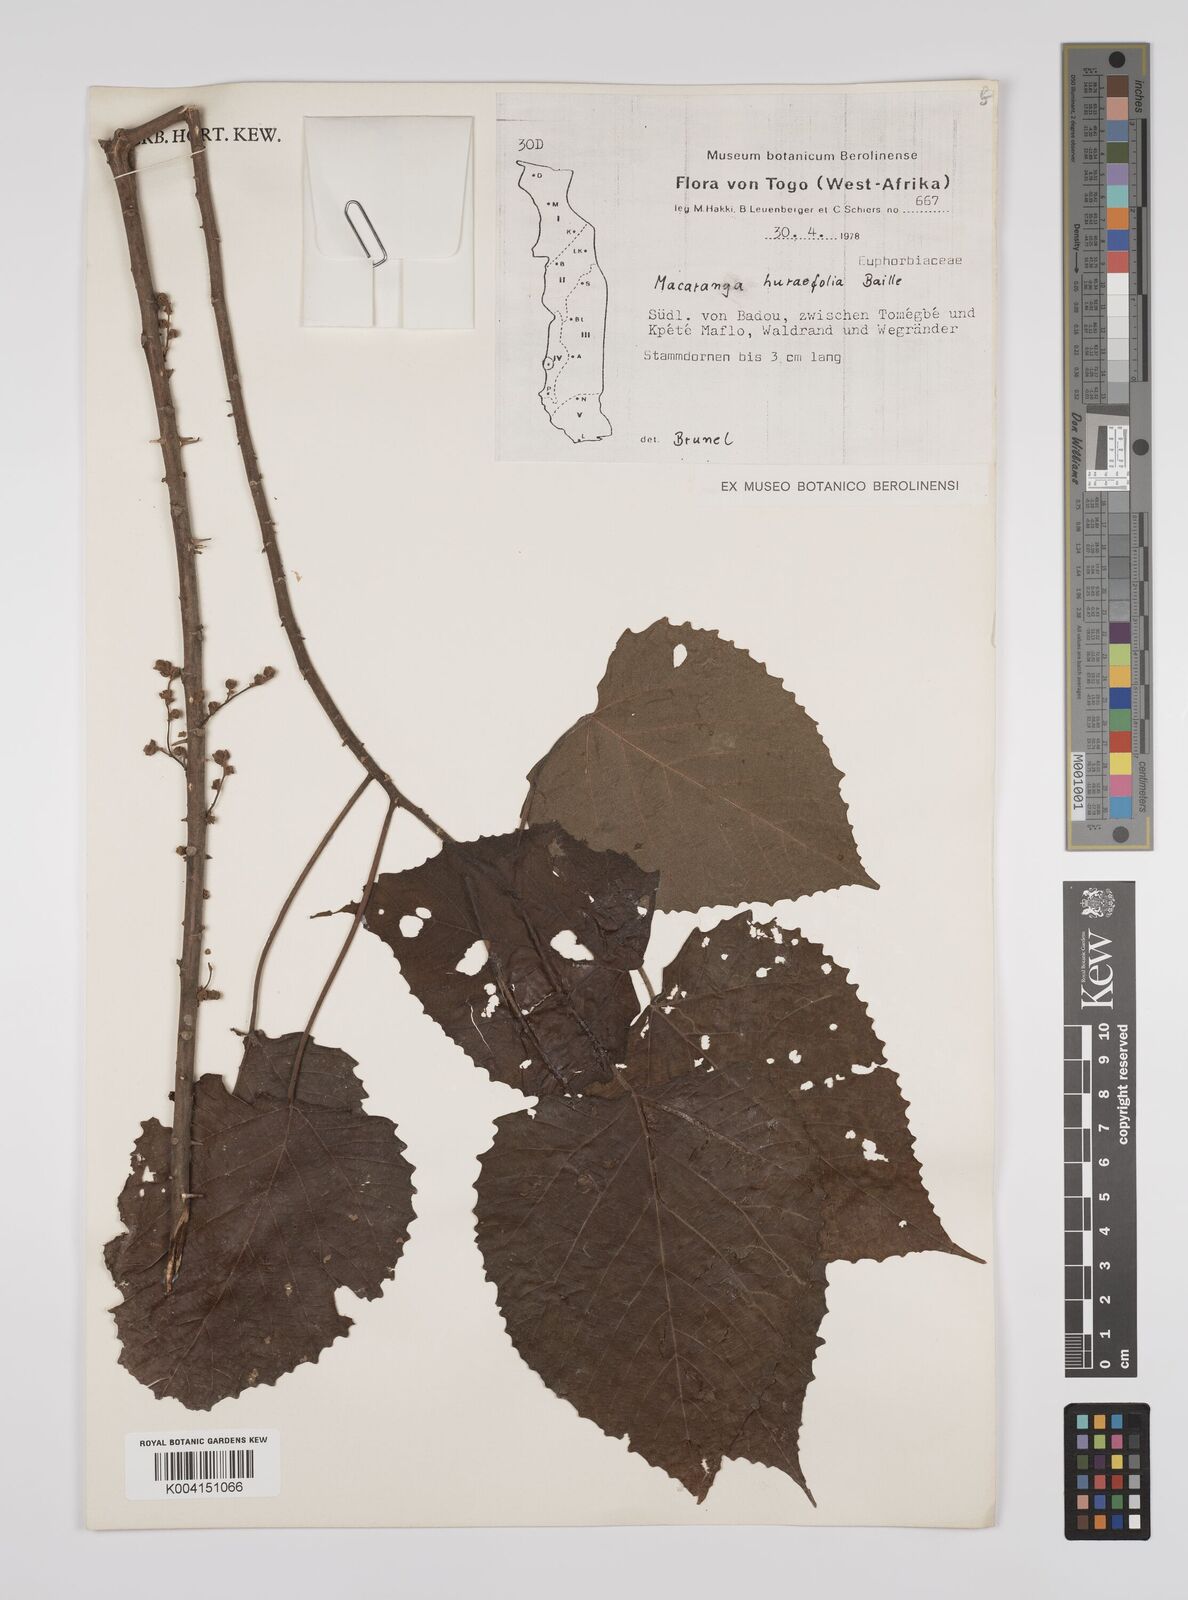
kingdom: Plantae
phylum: Tracheophyta
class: Magnoliopsida
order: Malpighiales
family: Euphorbiaceae
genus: Macaranga
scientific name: Macaranga hurifolia
